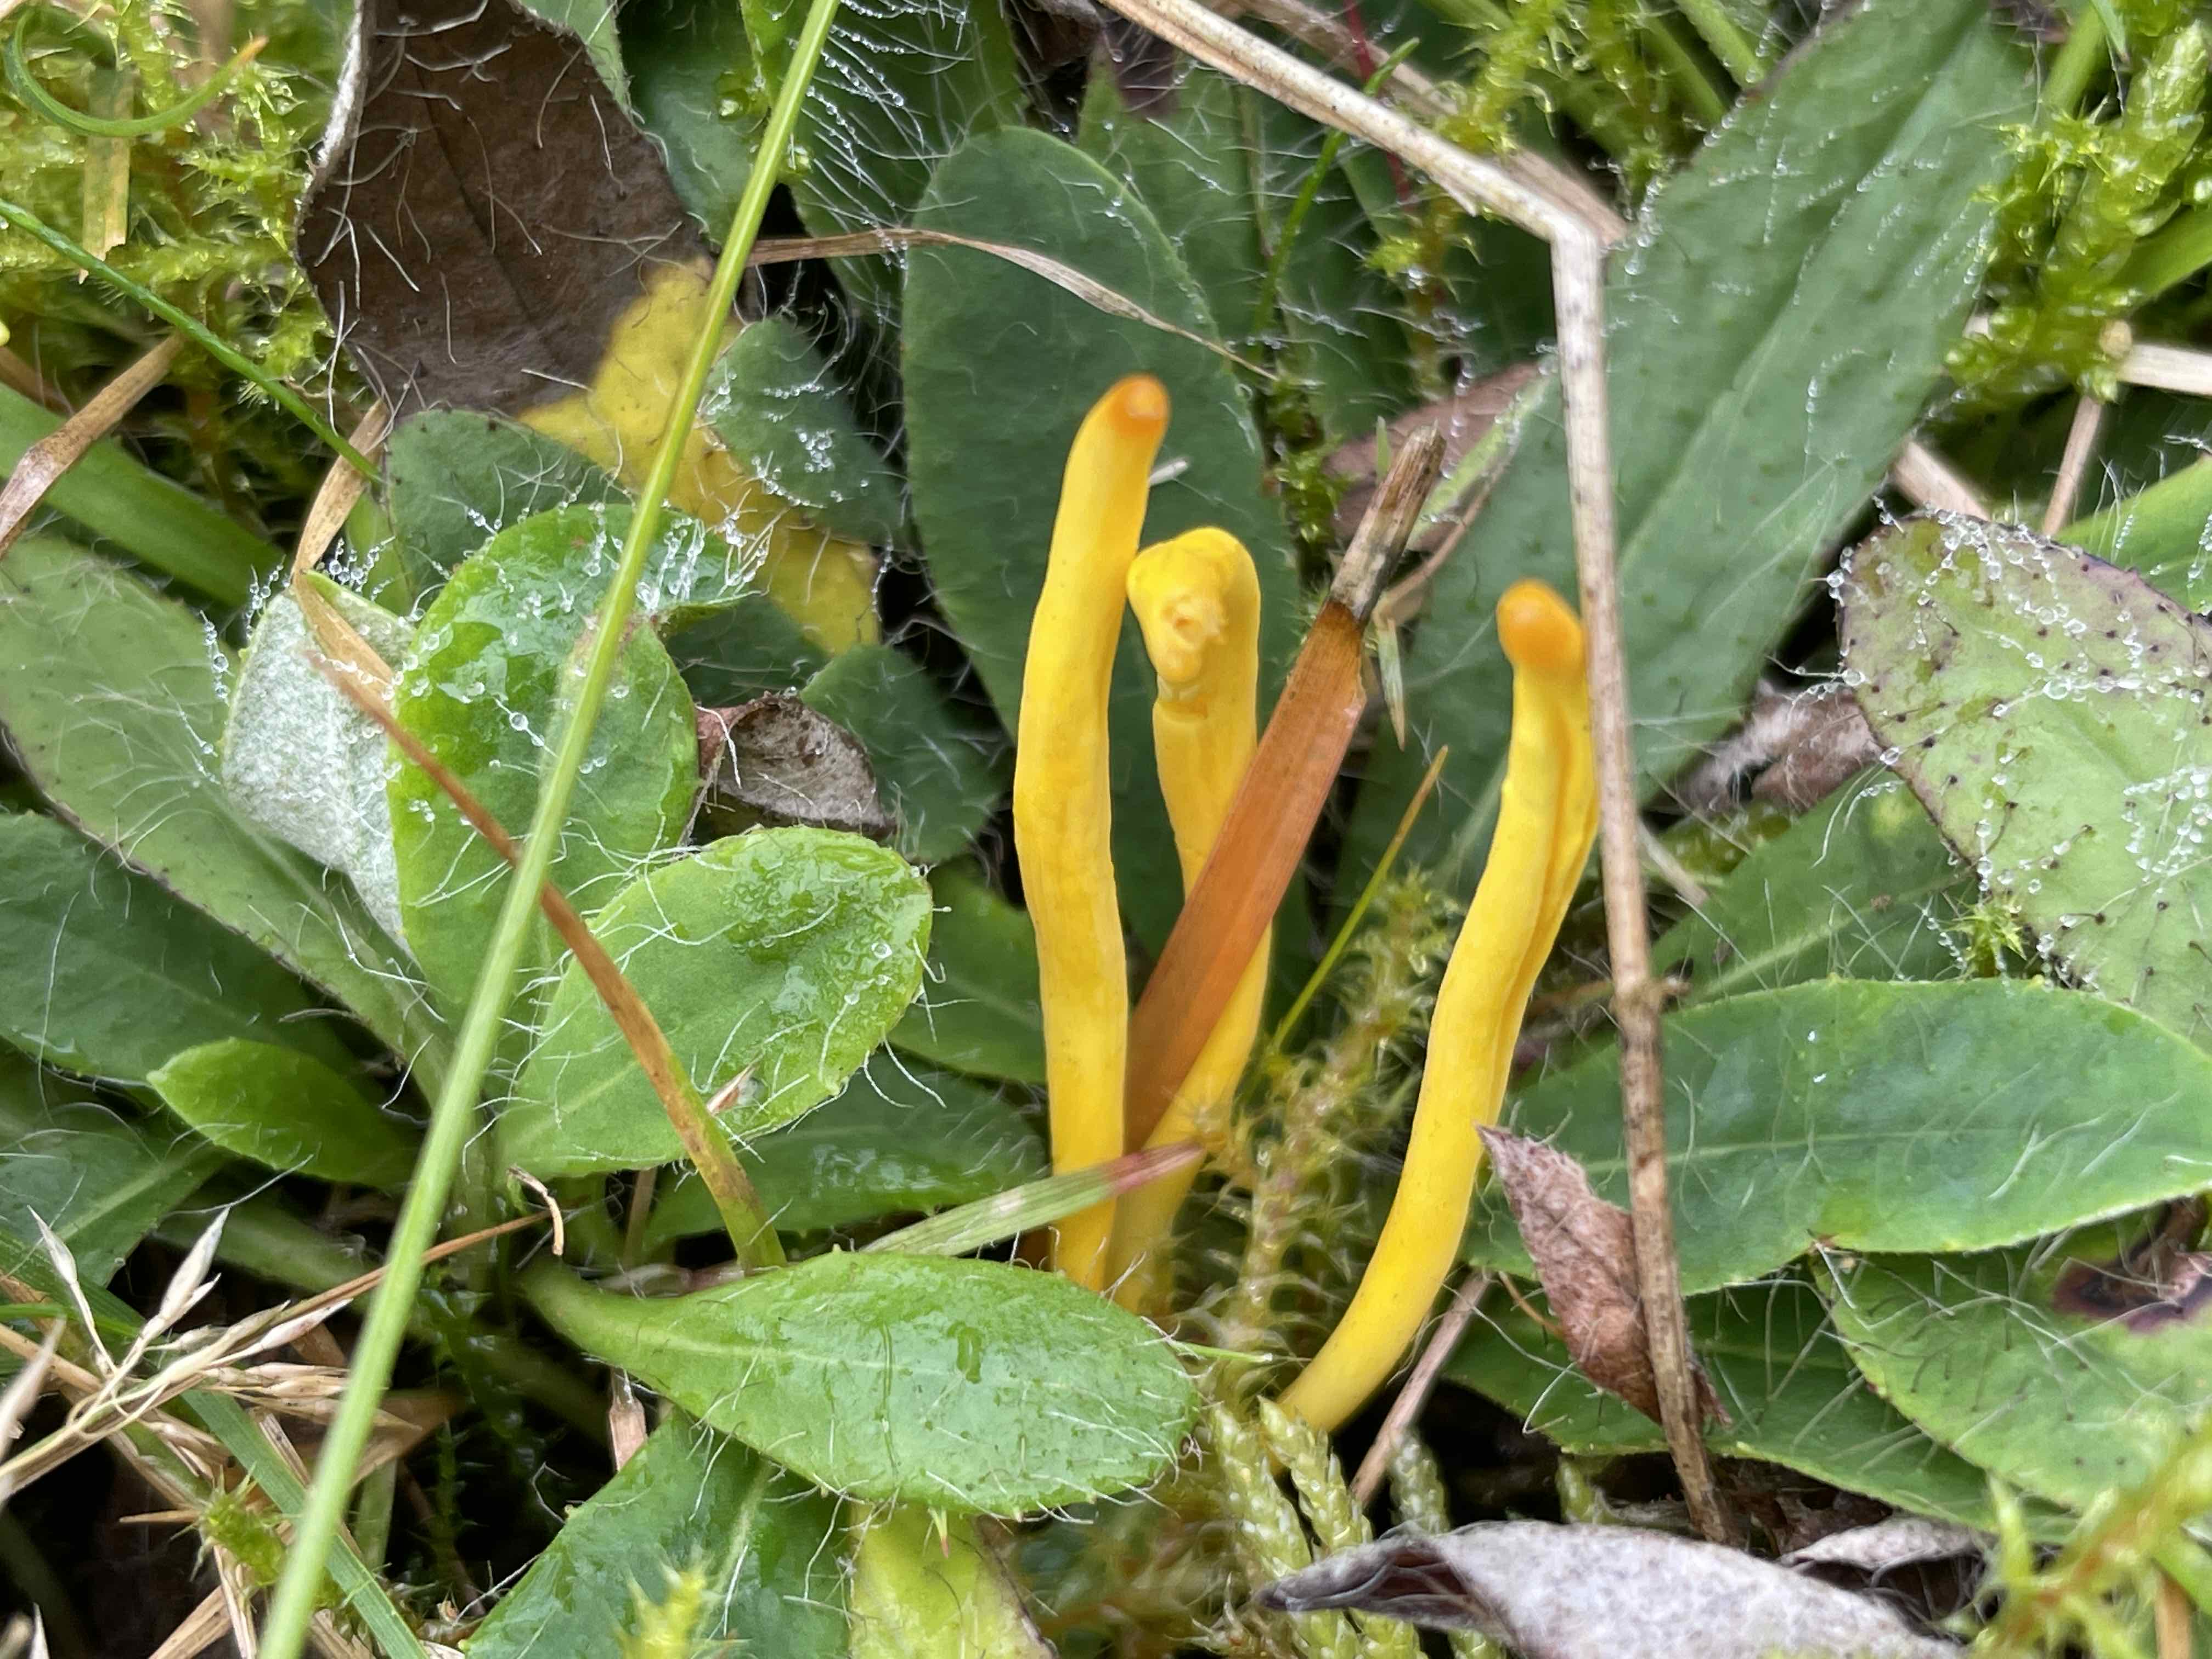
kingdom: Fungi
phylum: Basidiomycota
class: Agaricomycetes
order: Agaricales
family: Clavariaceae
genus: Clavulinopsis
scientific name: Clavulinopsis
